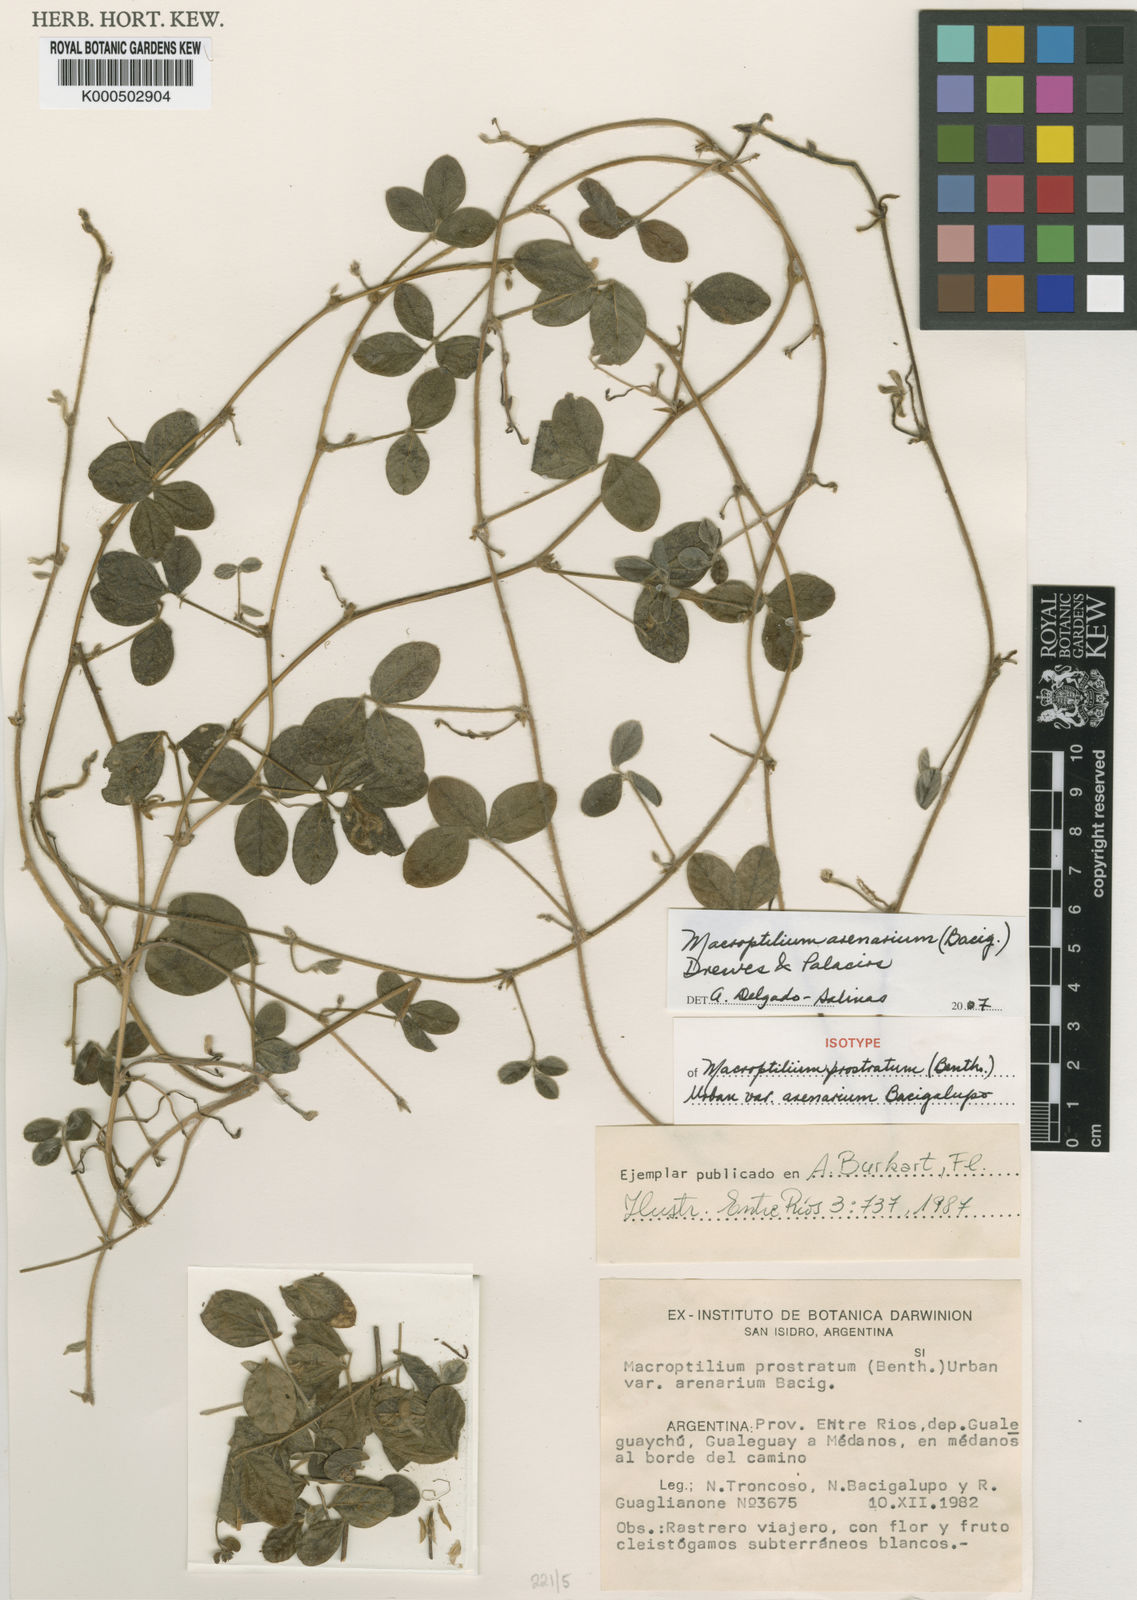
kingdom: Plantae
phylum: Tracheophyta
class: Magnoliopsida
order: Fabales
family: Fabaceae
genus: Macroptilium
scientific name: Macroptilium arenarium
